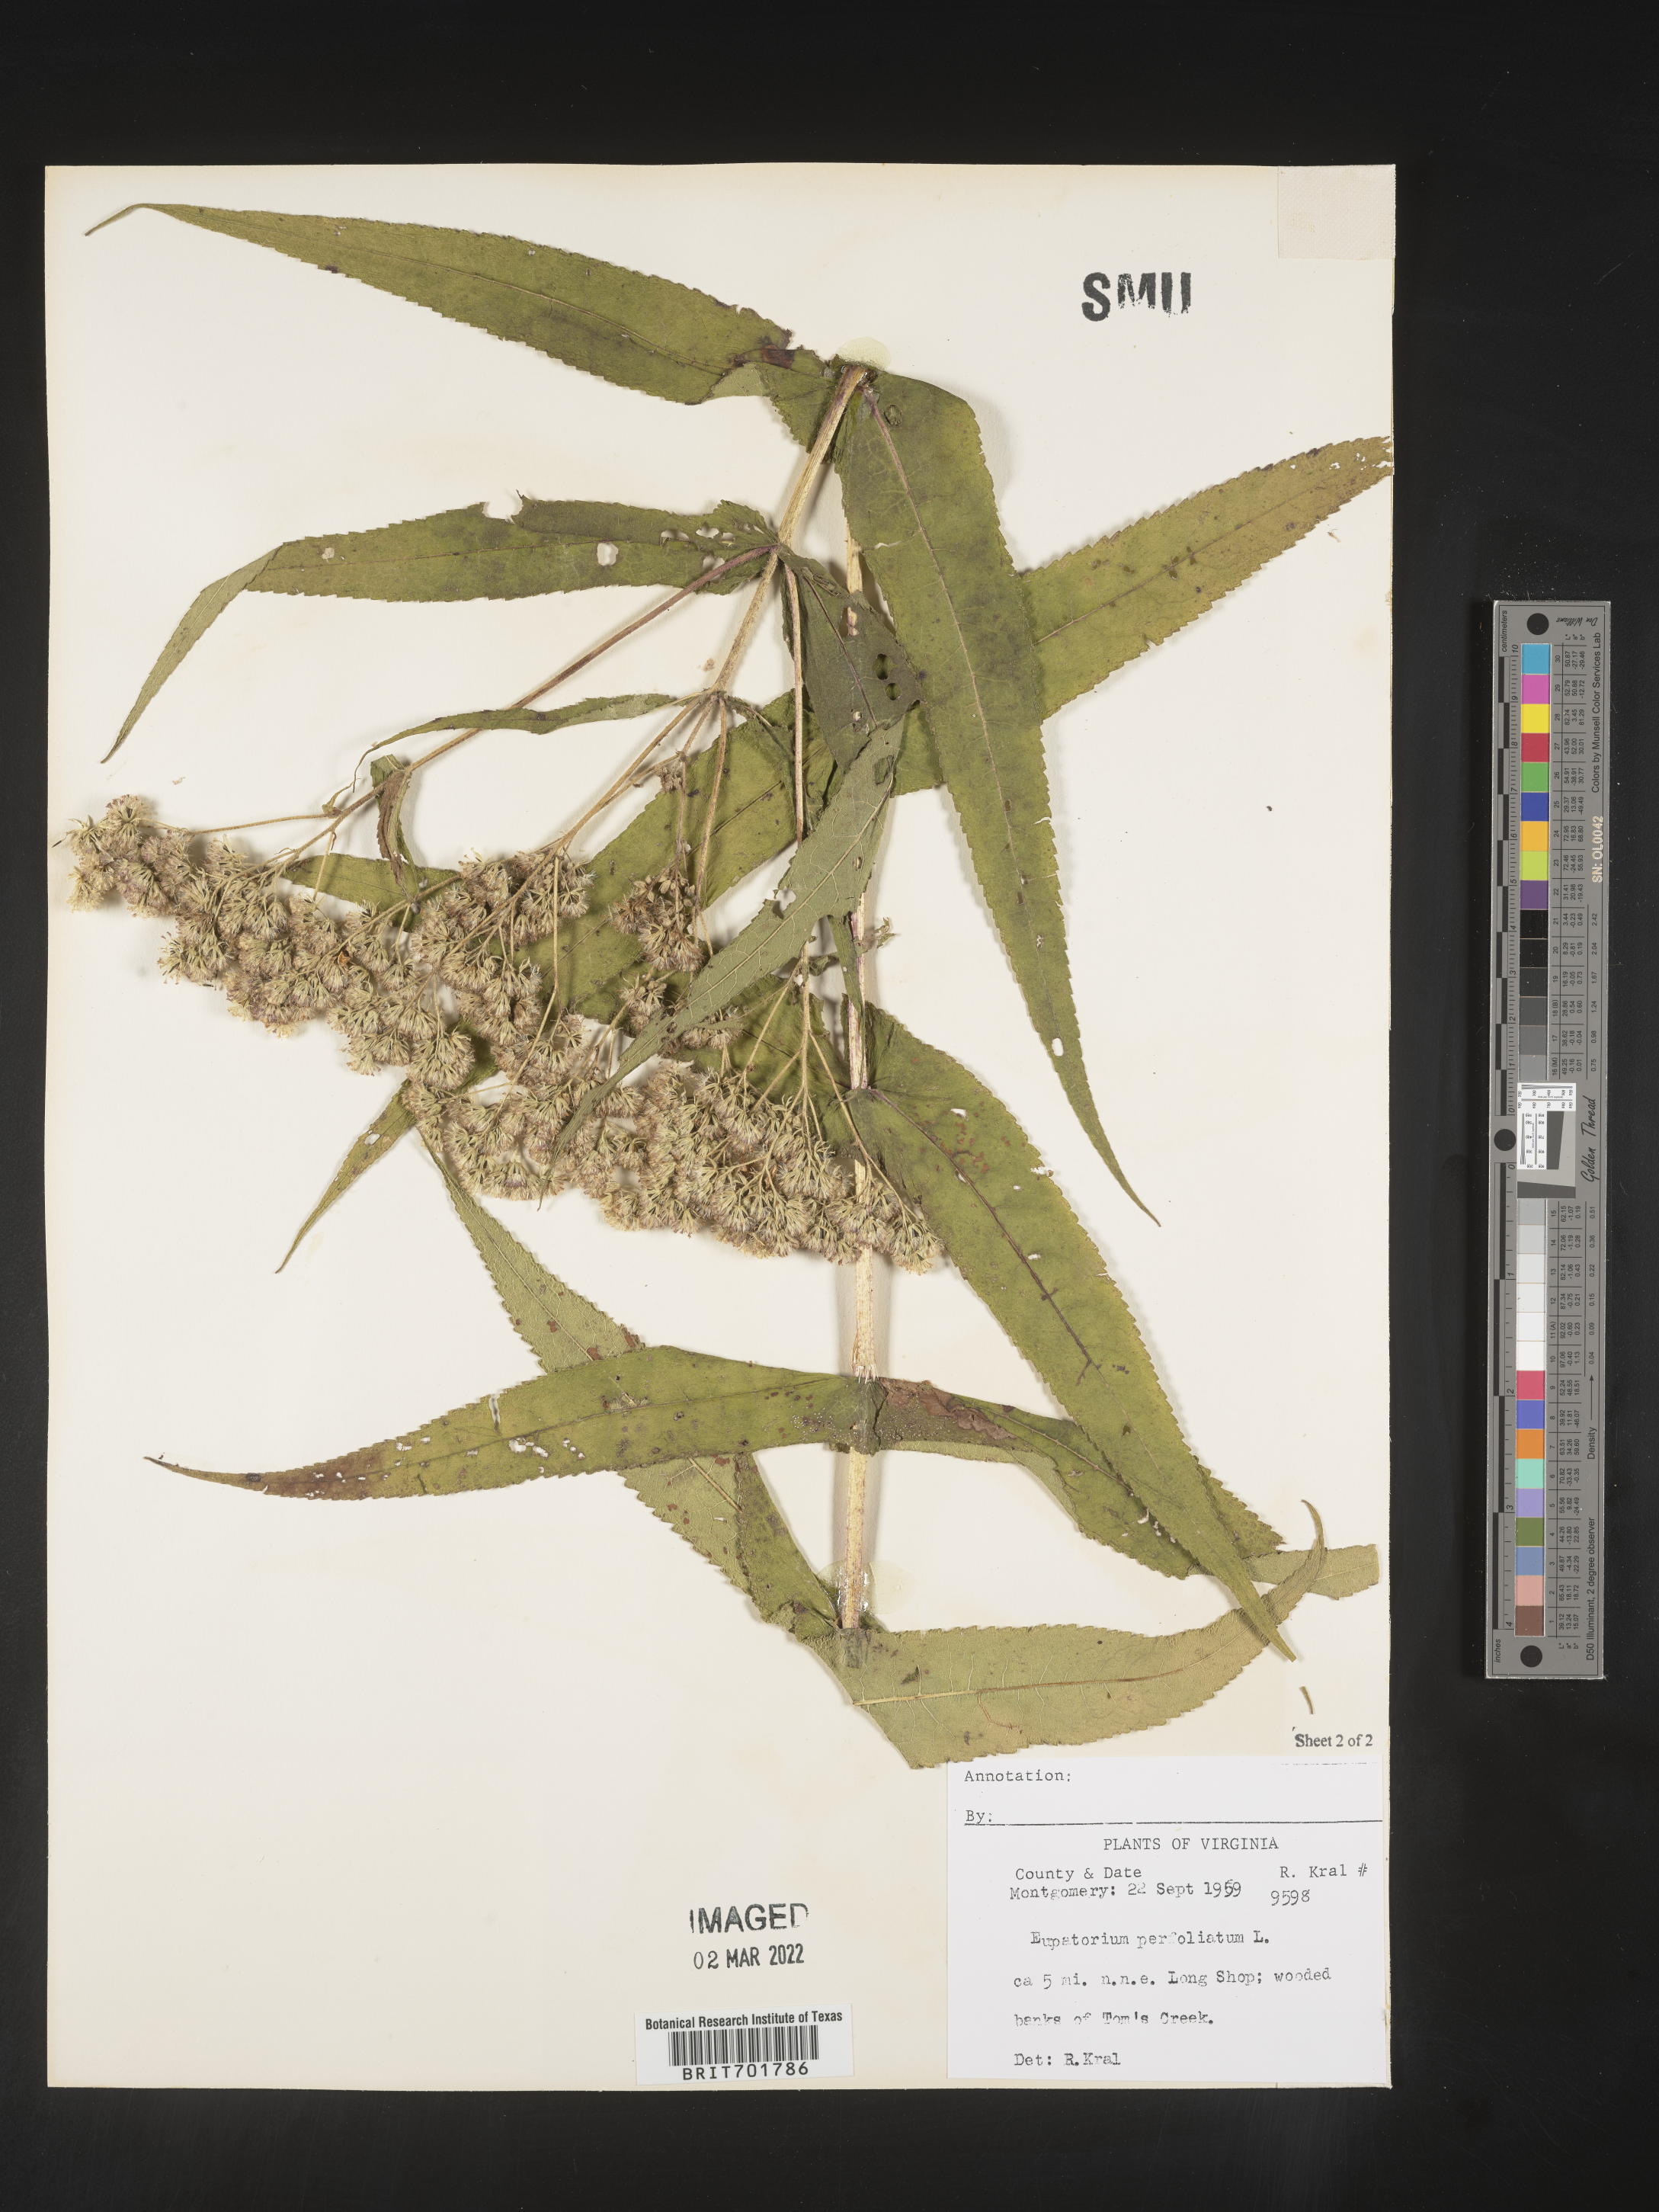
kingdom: Plantae
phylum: Tracheophyta
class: Magnoliopsida
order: Asterales
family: Asteraceae
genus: Eupatorium
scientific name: Eupatorium perfoliatum
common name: Boneset
